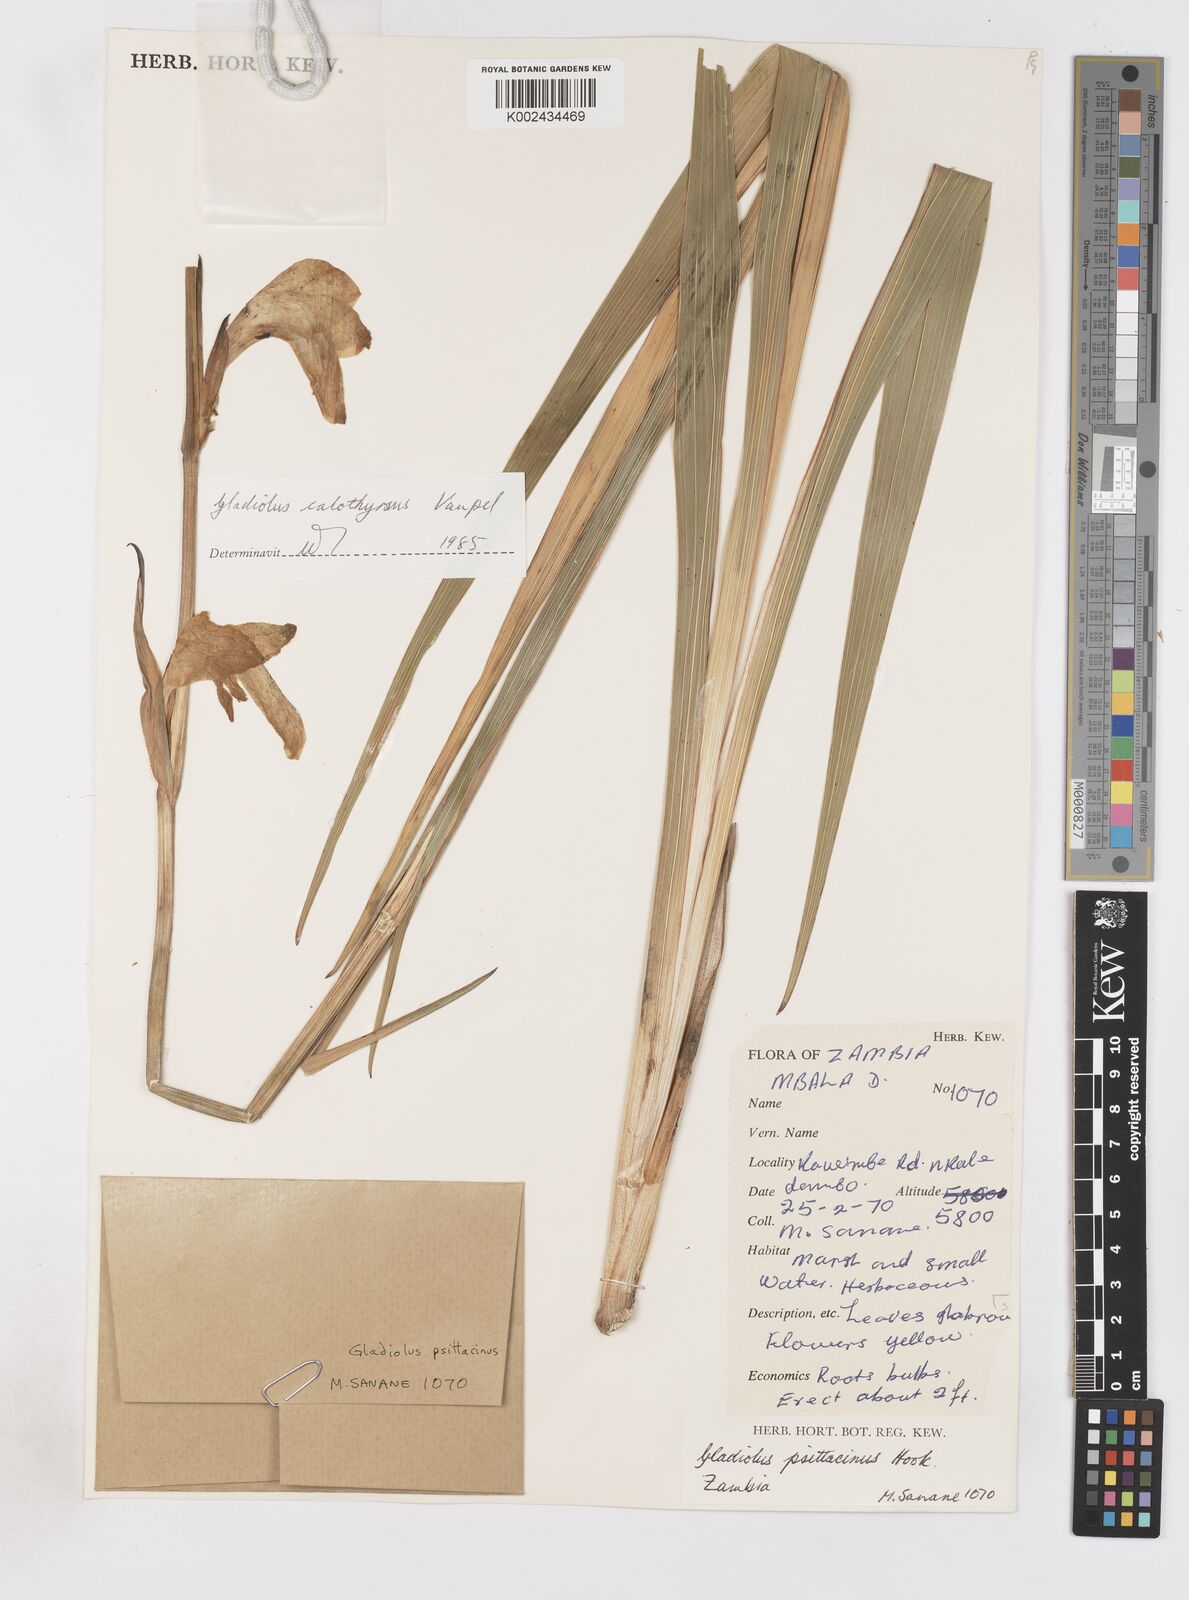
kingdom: Plantae
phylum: Tracheophyta
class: Liliopsida
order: Asparagales
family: Iridaceae
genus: Gladiolus
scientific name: Gladiolus dalenii
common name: Cornflag
